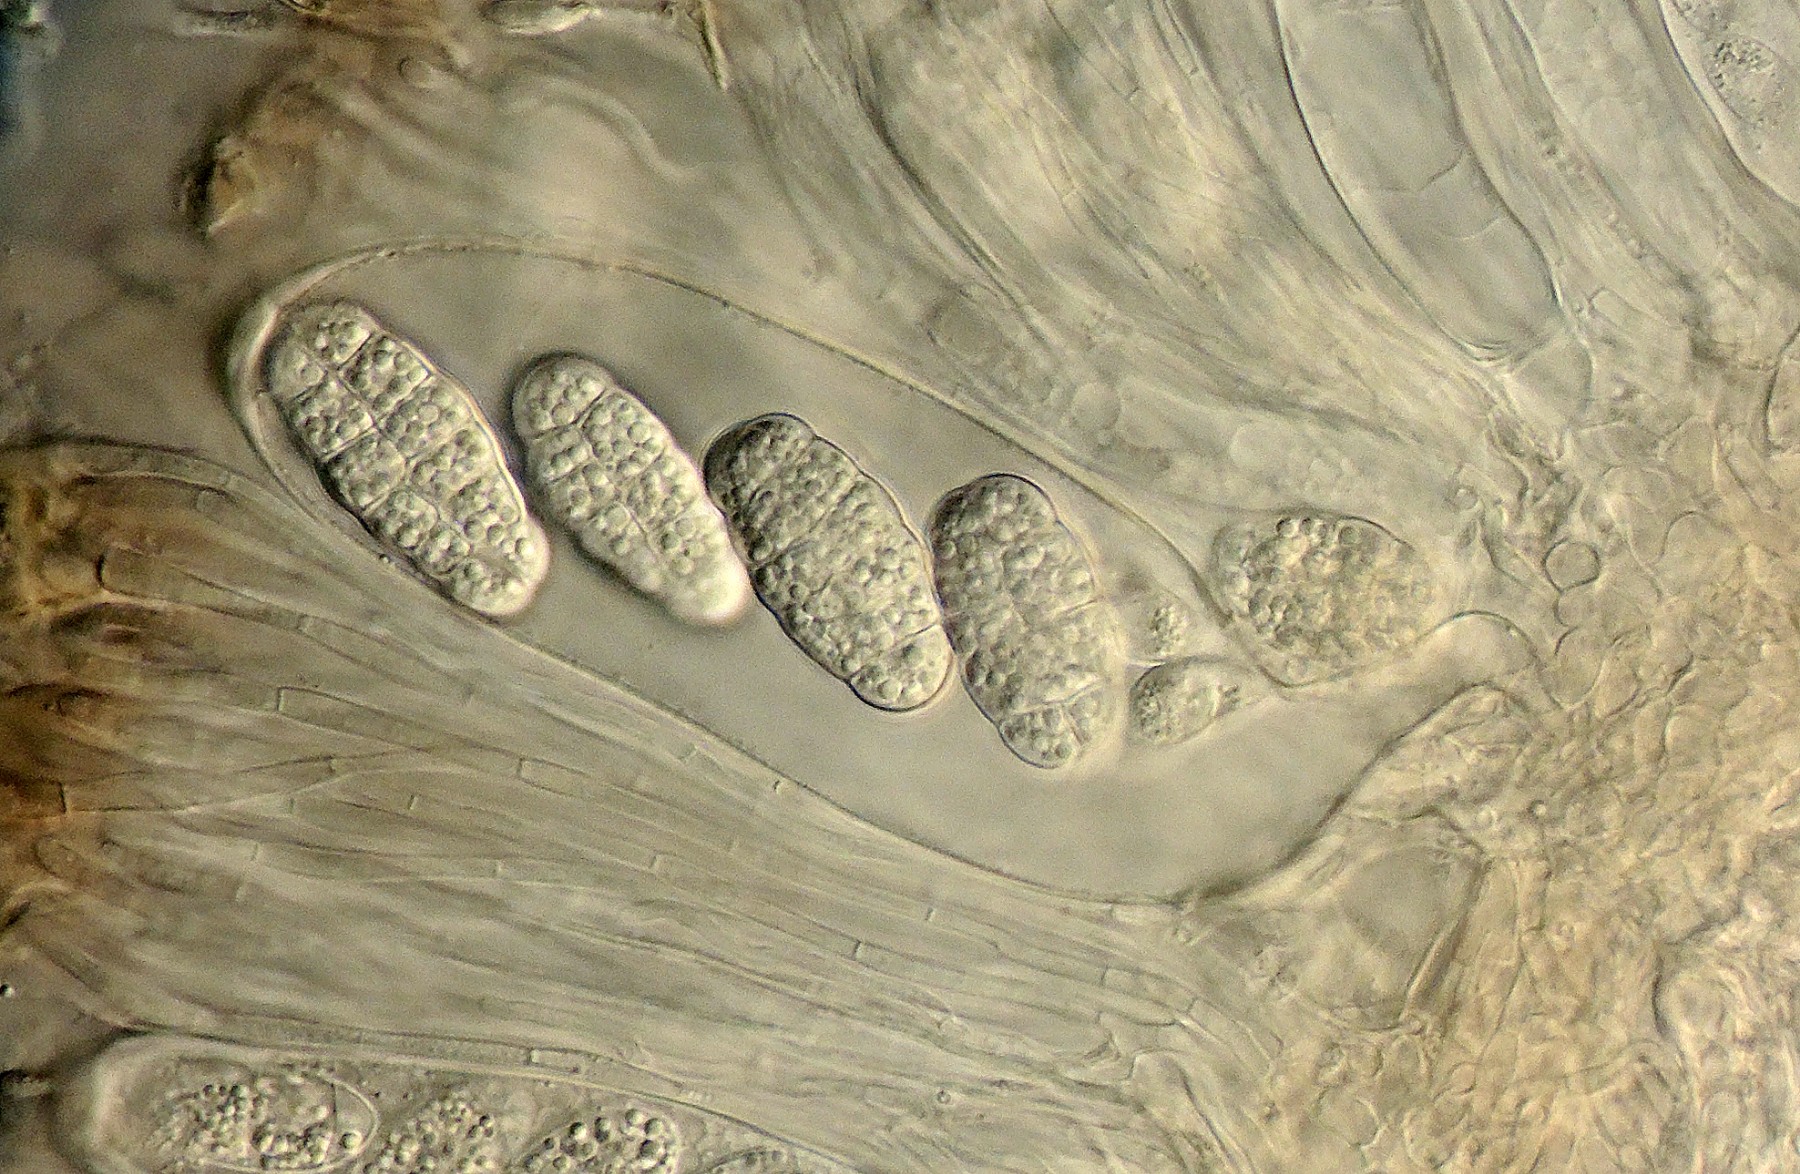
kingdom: Fungi
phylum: Ascomycota
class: Lecanoromycetes
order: Peltigerales
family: Collemataceae
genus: Enchylium
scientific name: Enchylium limosum
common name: dynd-bævrelav
